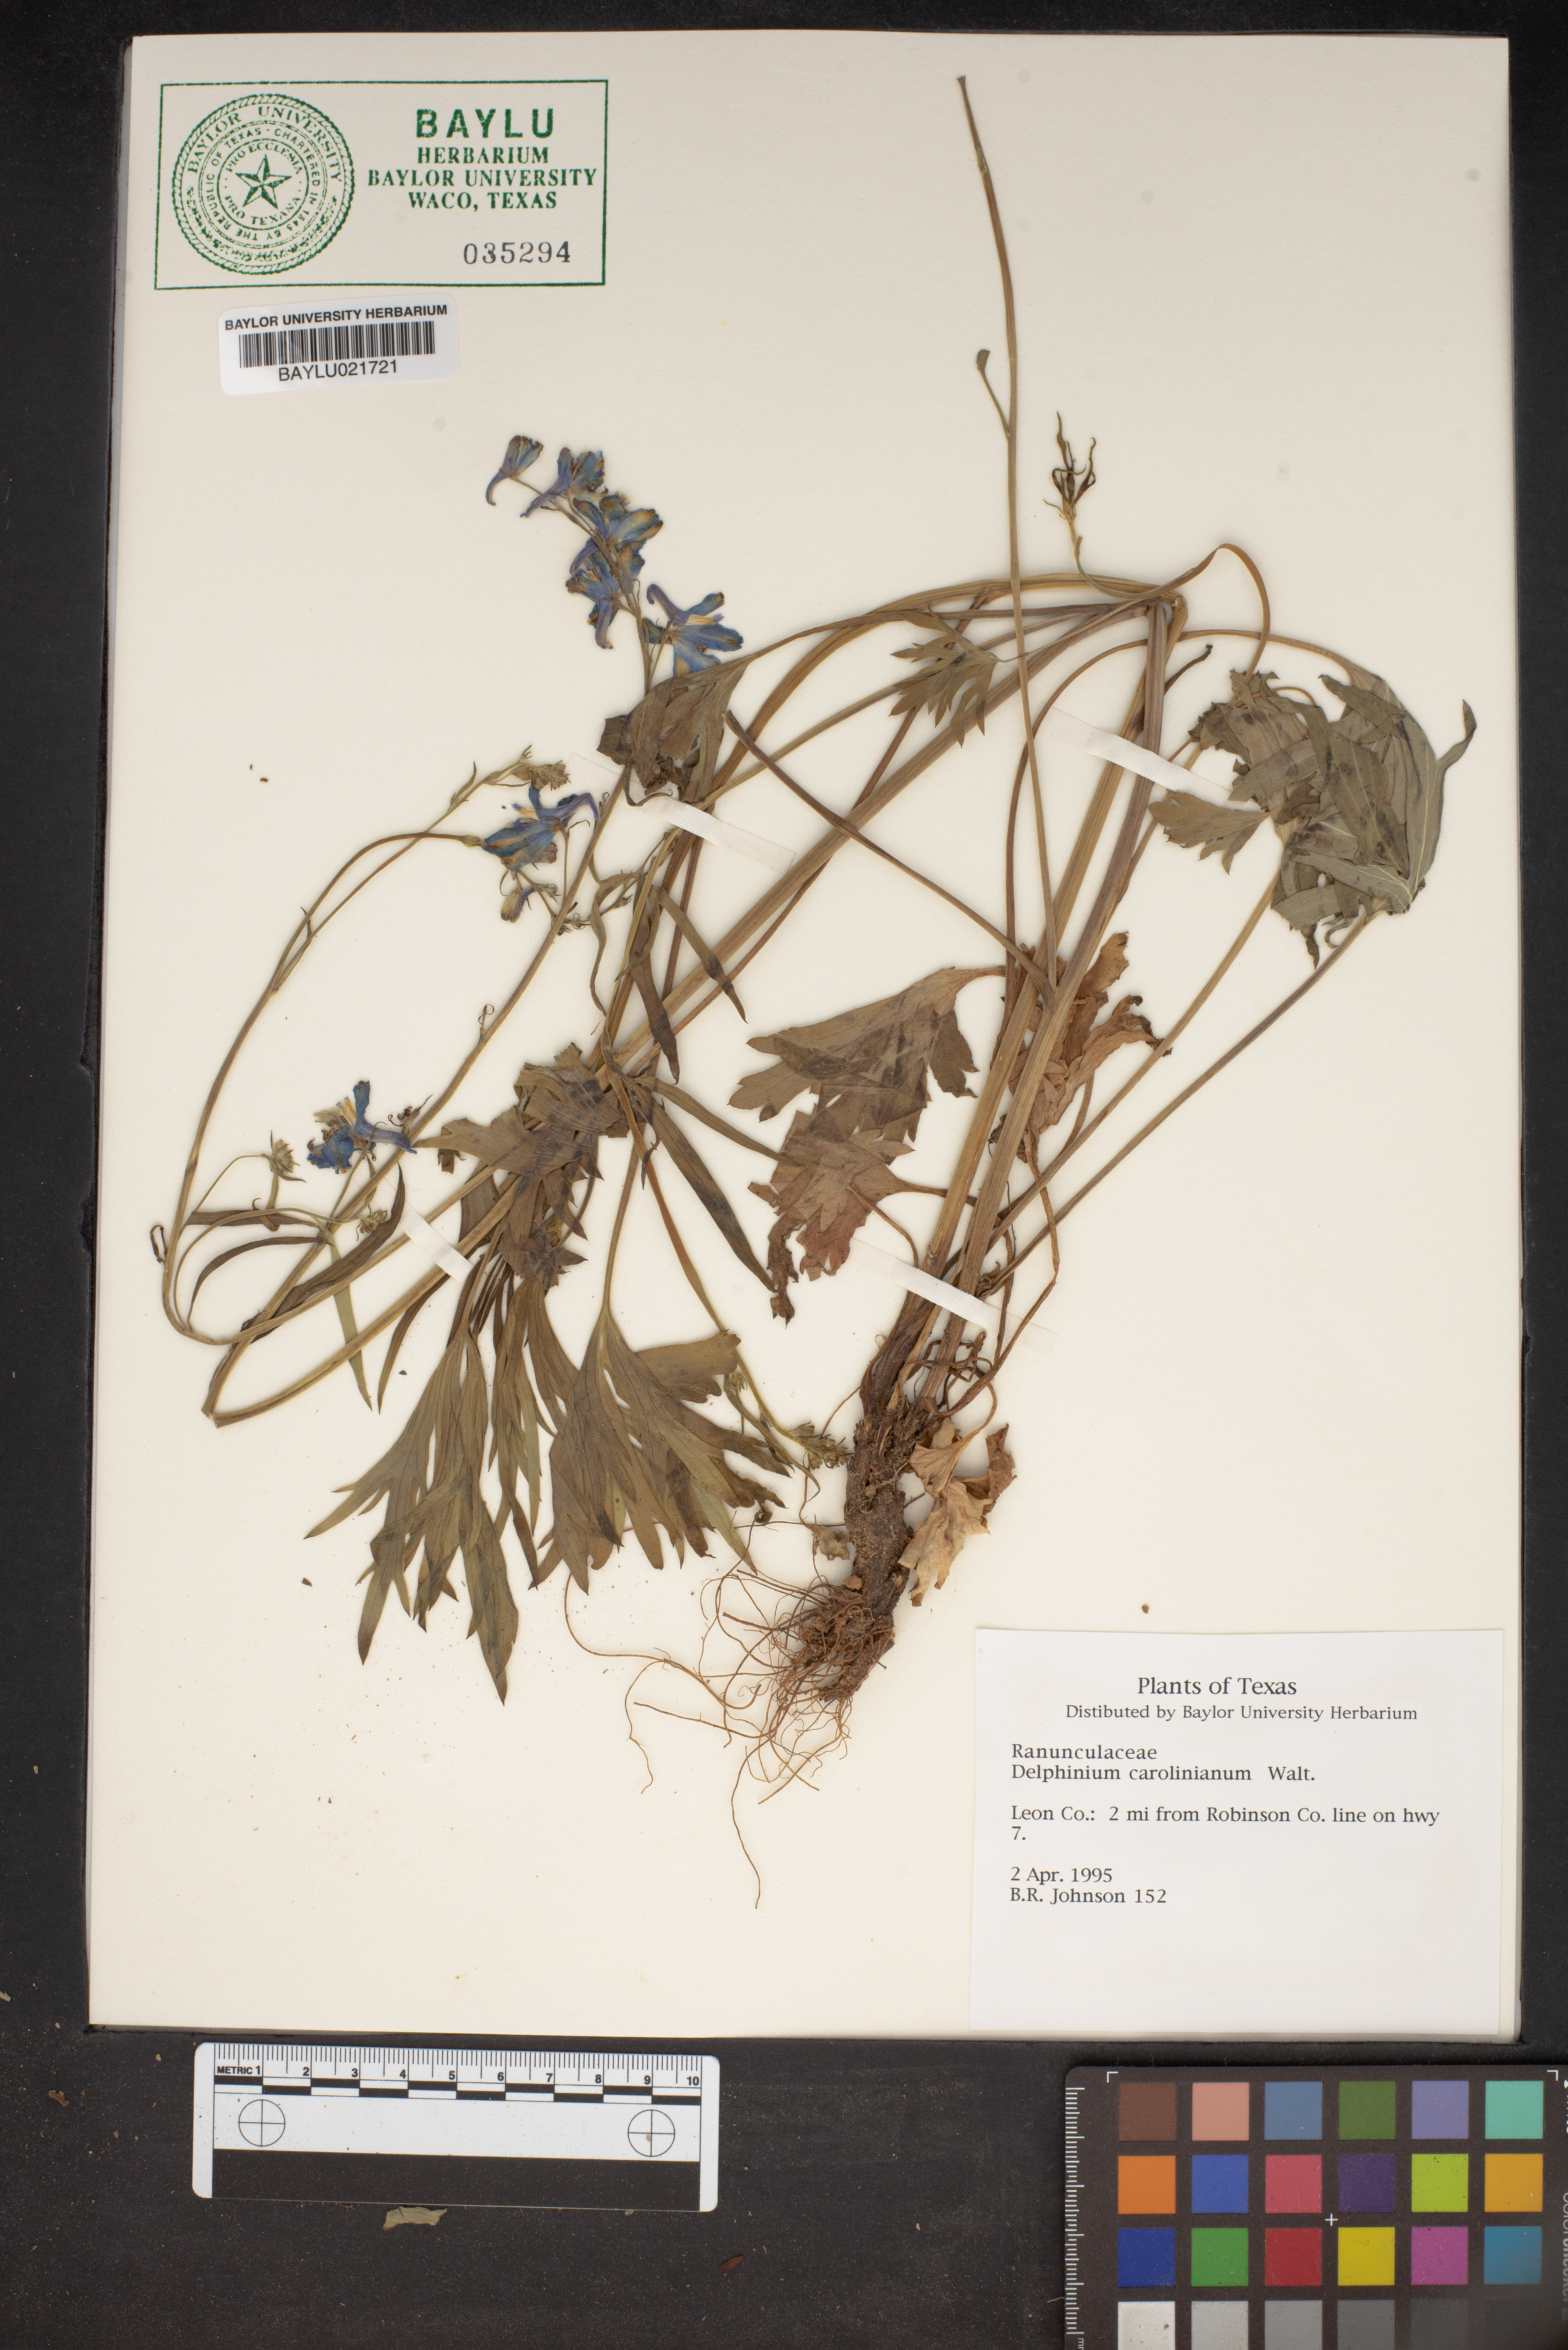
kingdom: Plantae
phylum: Tracheophyta
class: Magnoliopsida
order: Ranunculales
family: Ranunculaceae
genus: Delphinium
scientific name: Delphinium carolinianum
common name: Carolina larkspur
